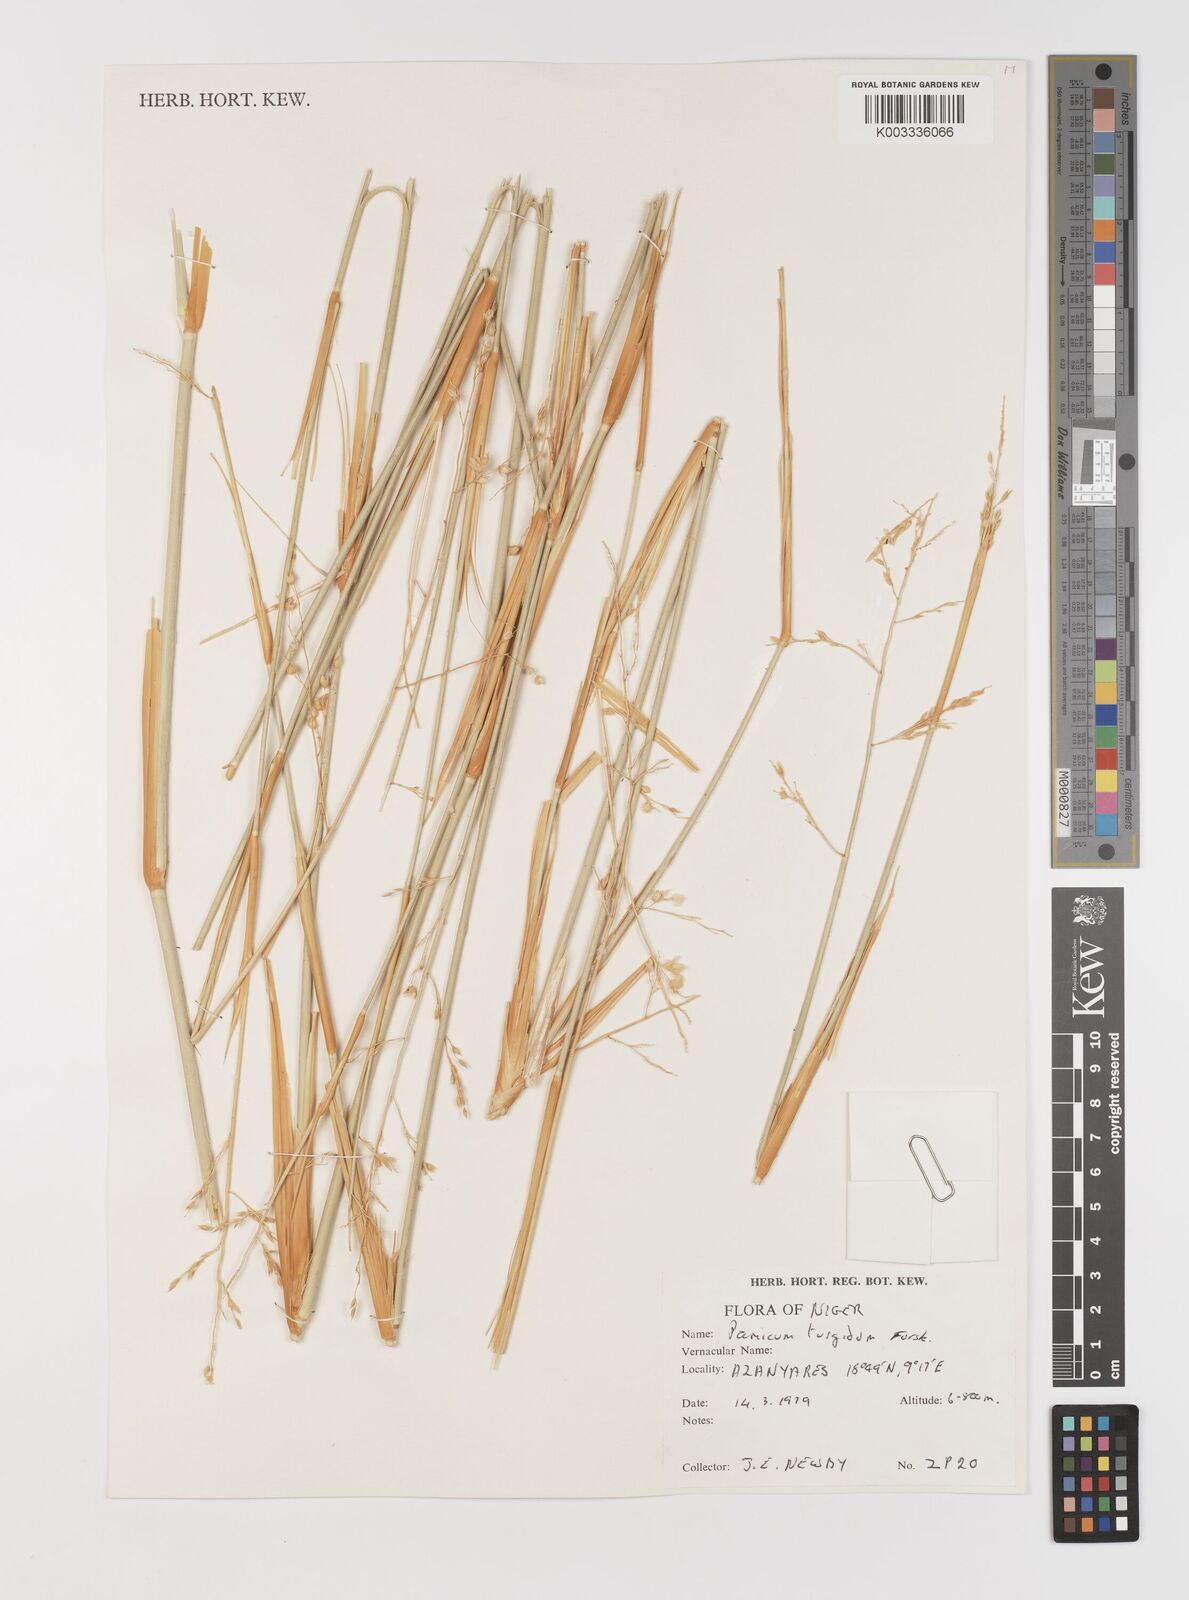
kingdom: Plantae
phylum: Tracheophyta
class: Liliopsida
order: Poales
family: Poaceae
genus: Panicum
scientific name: Panicum turgidum
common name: Desert grass
